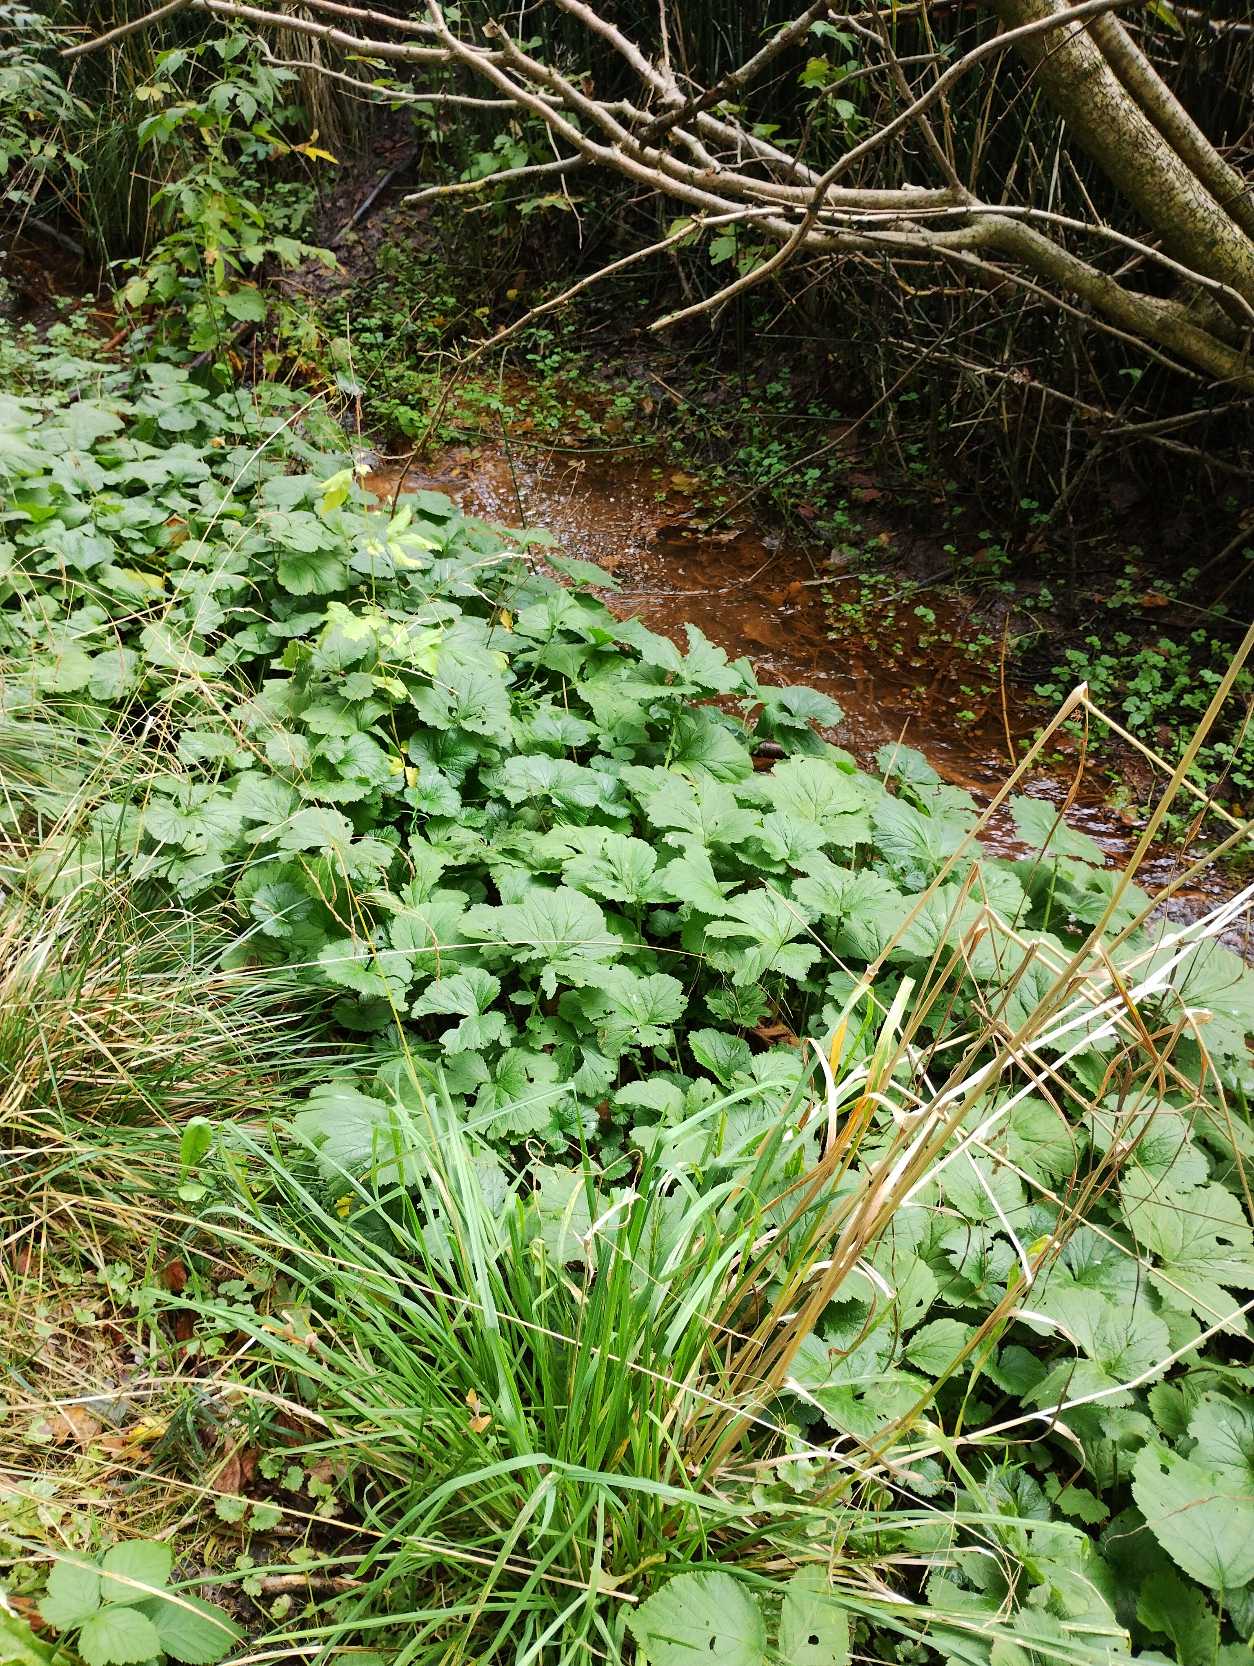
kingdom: Plantae
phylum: Tracheophyta
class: Magnoliopsida
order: Rosales
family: Rosaceae
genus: Geum
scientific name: Geum
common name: Nellikerodslægten
